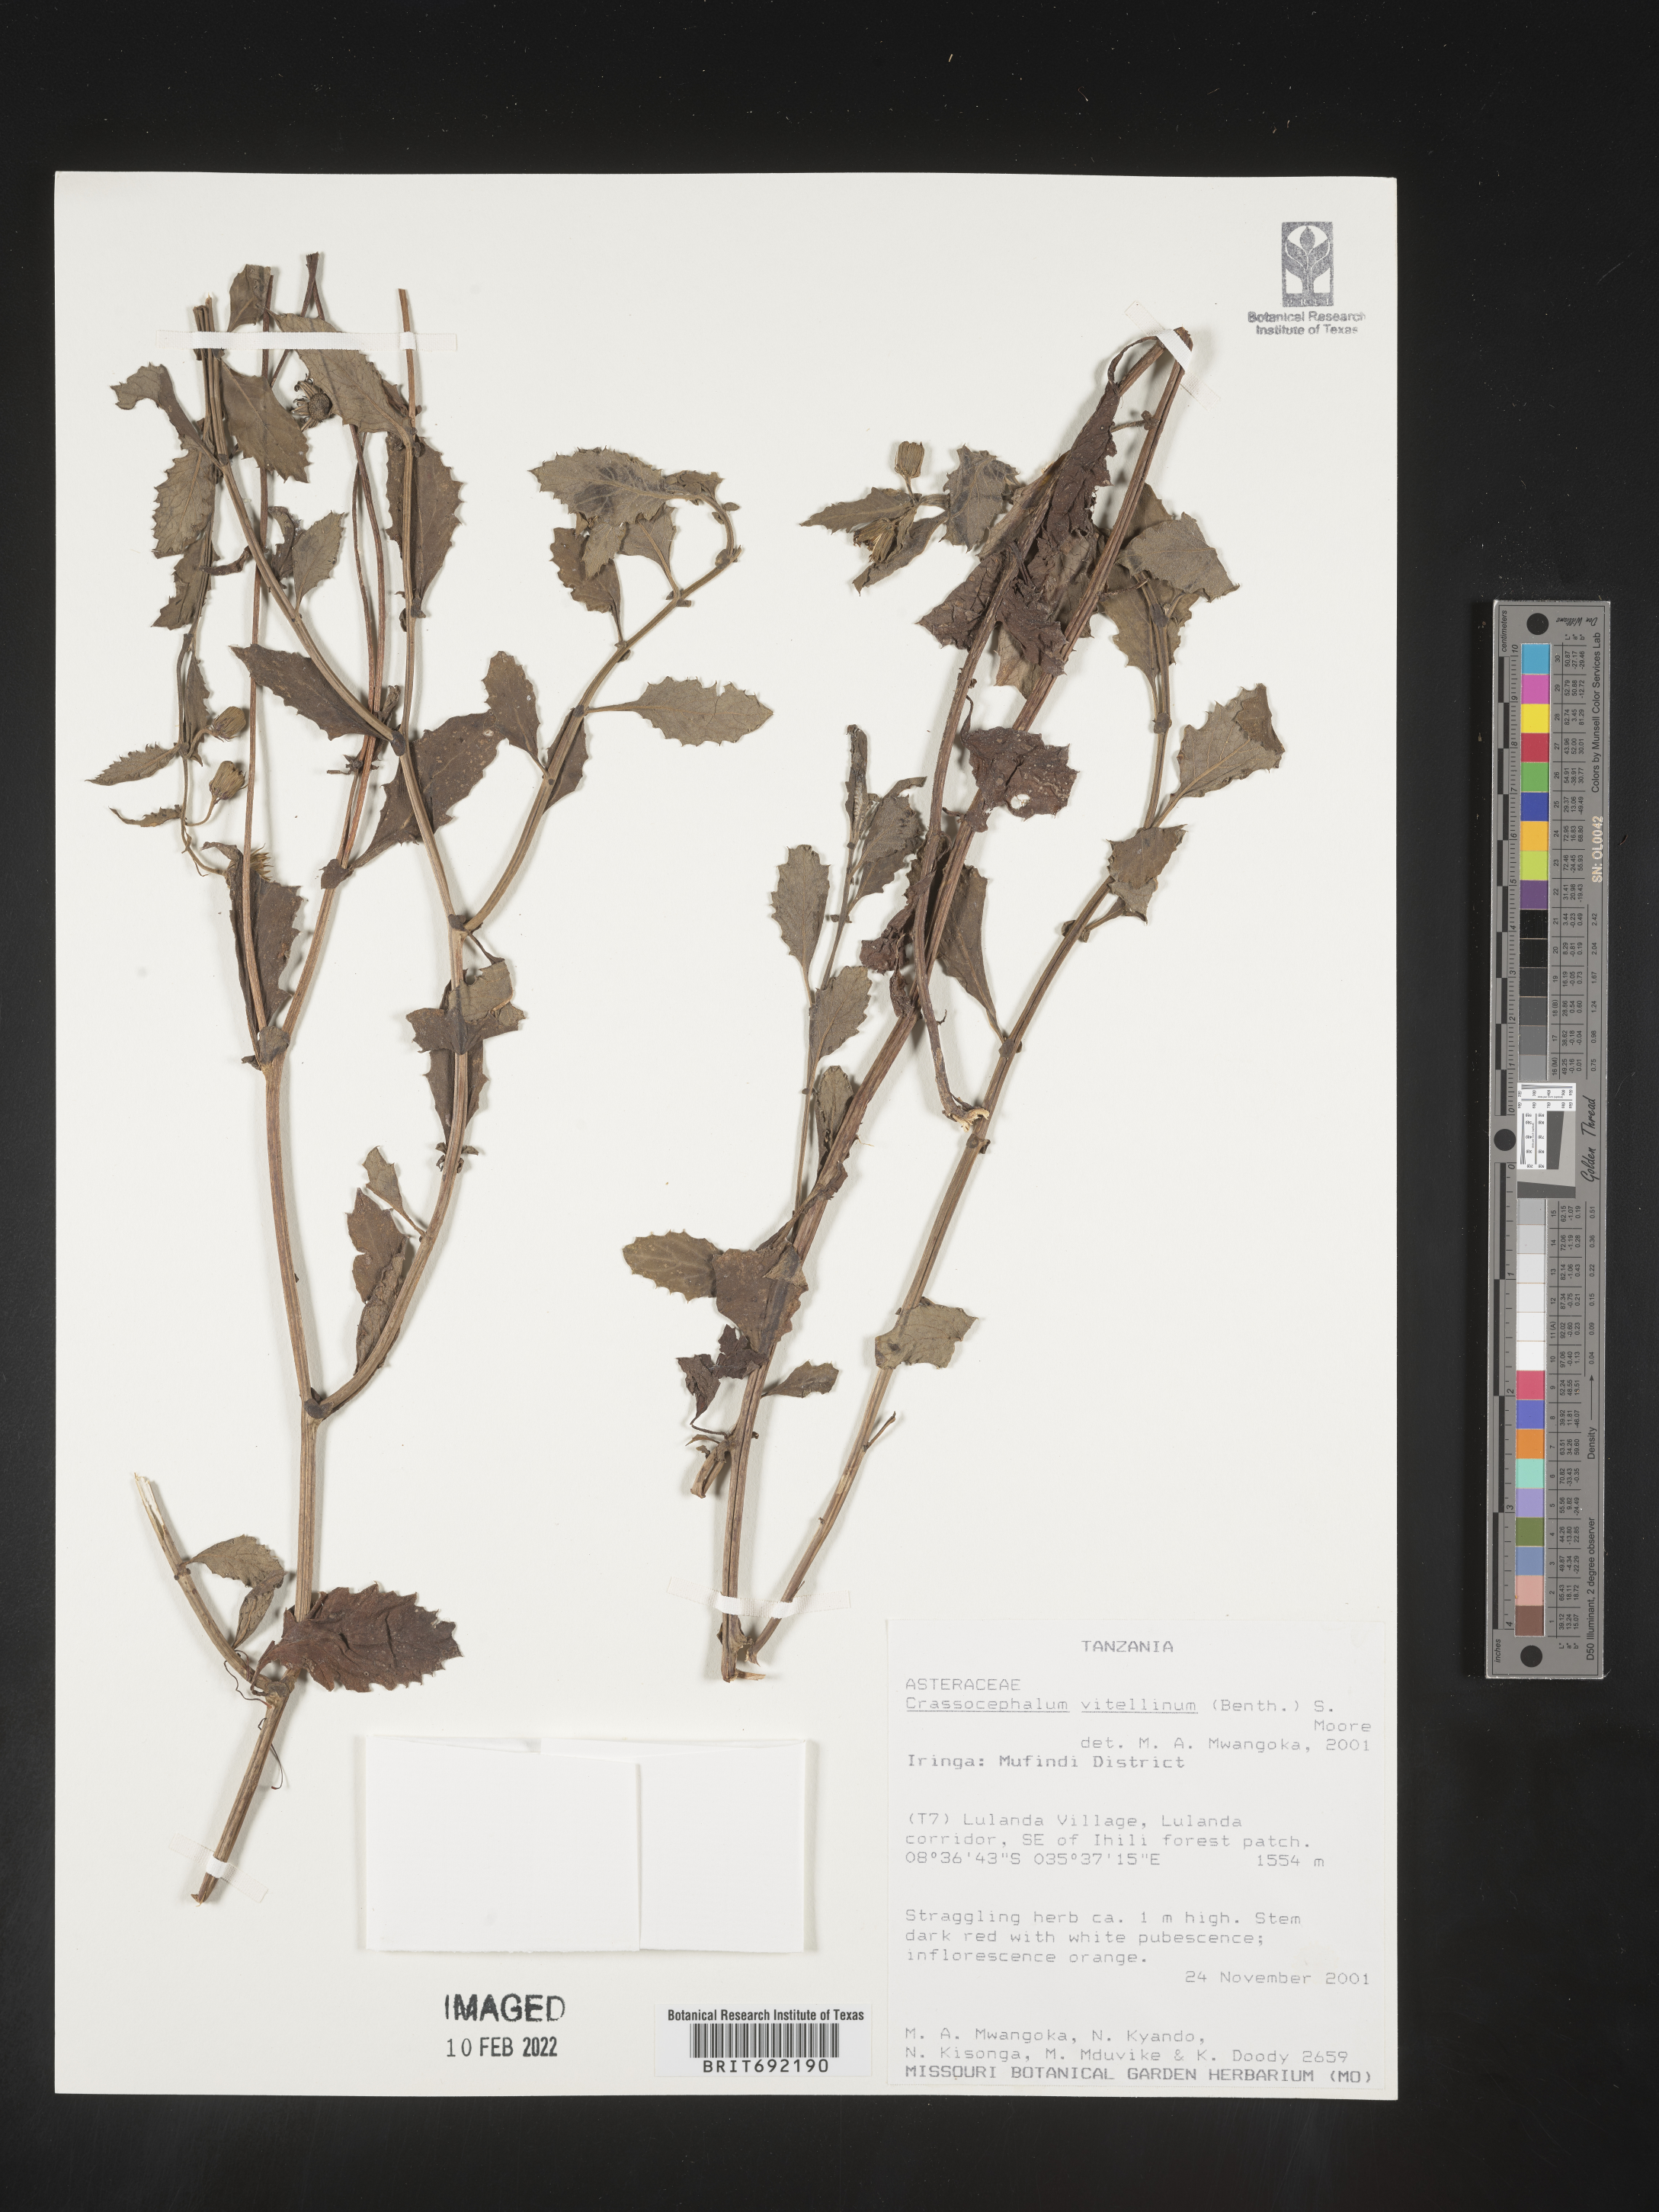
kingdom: Plantae
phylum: Tracheophyta
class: Magnoliopsida
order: Asterales
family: Asteraceae
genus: Crassocephalum
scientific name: Crassocephalum
